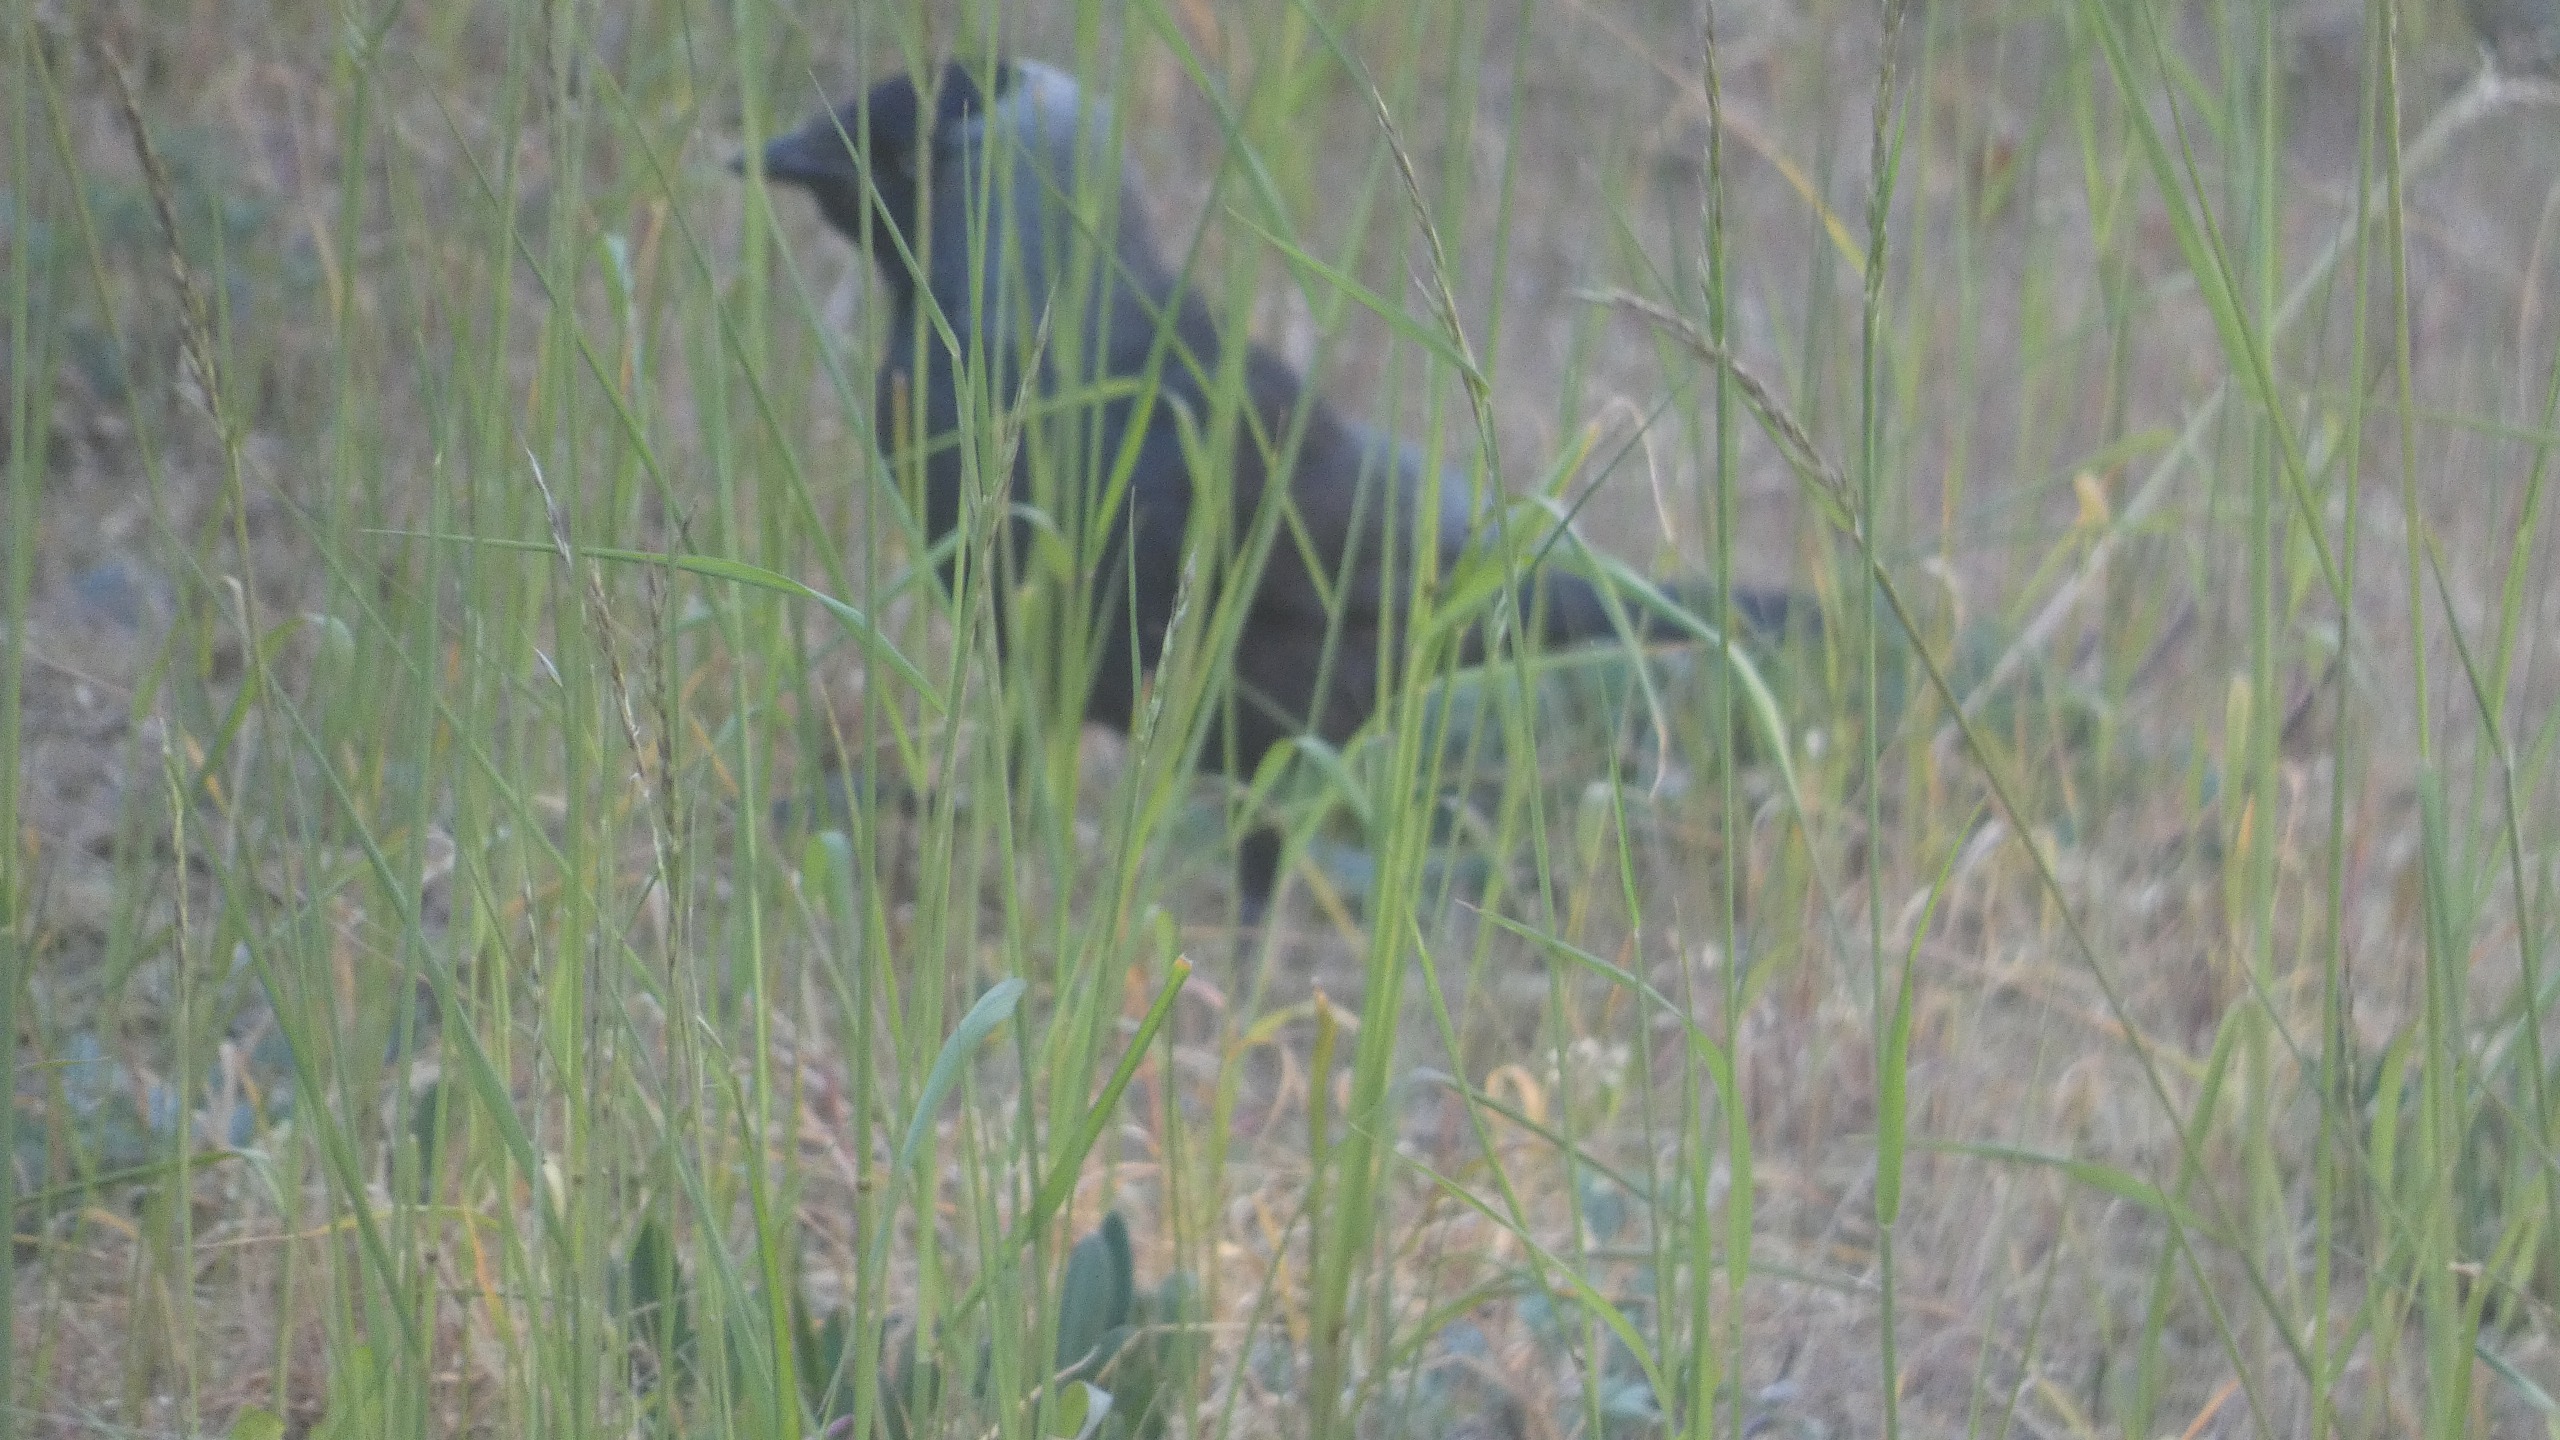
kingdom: Animalia
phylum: Chordata
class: Aves
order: Passeriformes
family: Corvidae
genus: Coloeus
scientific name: Coloeus monedula
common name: Allike
